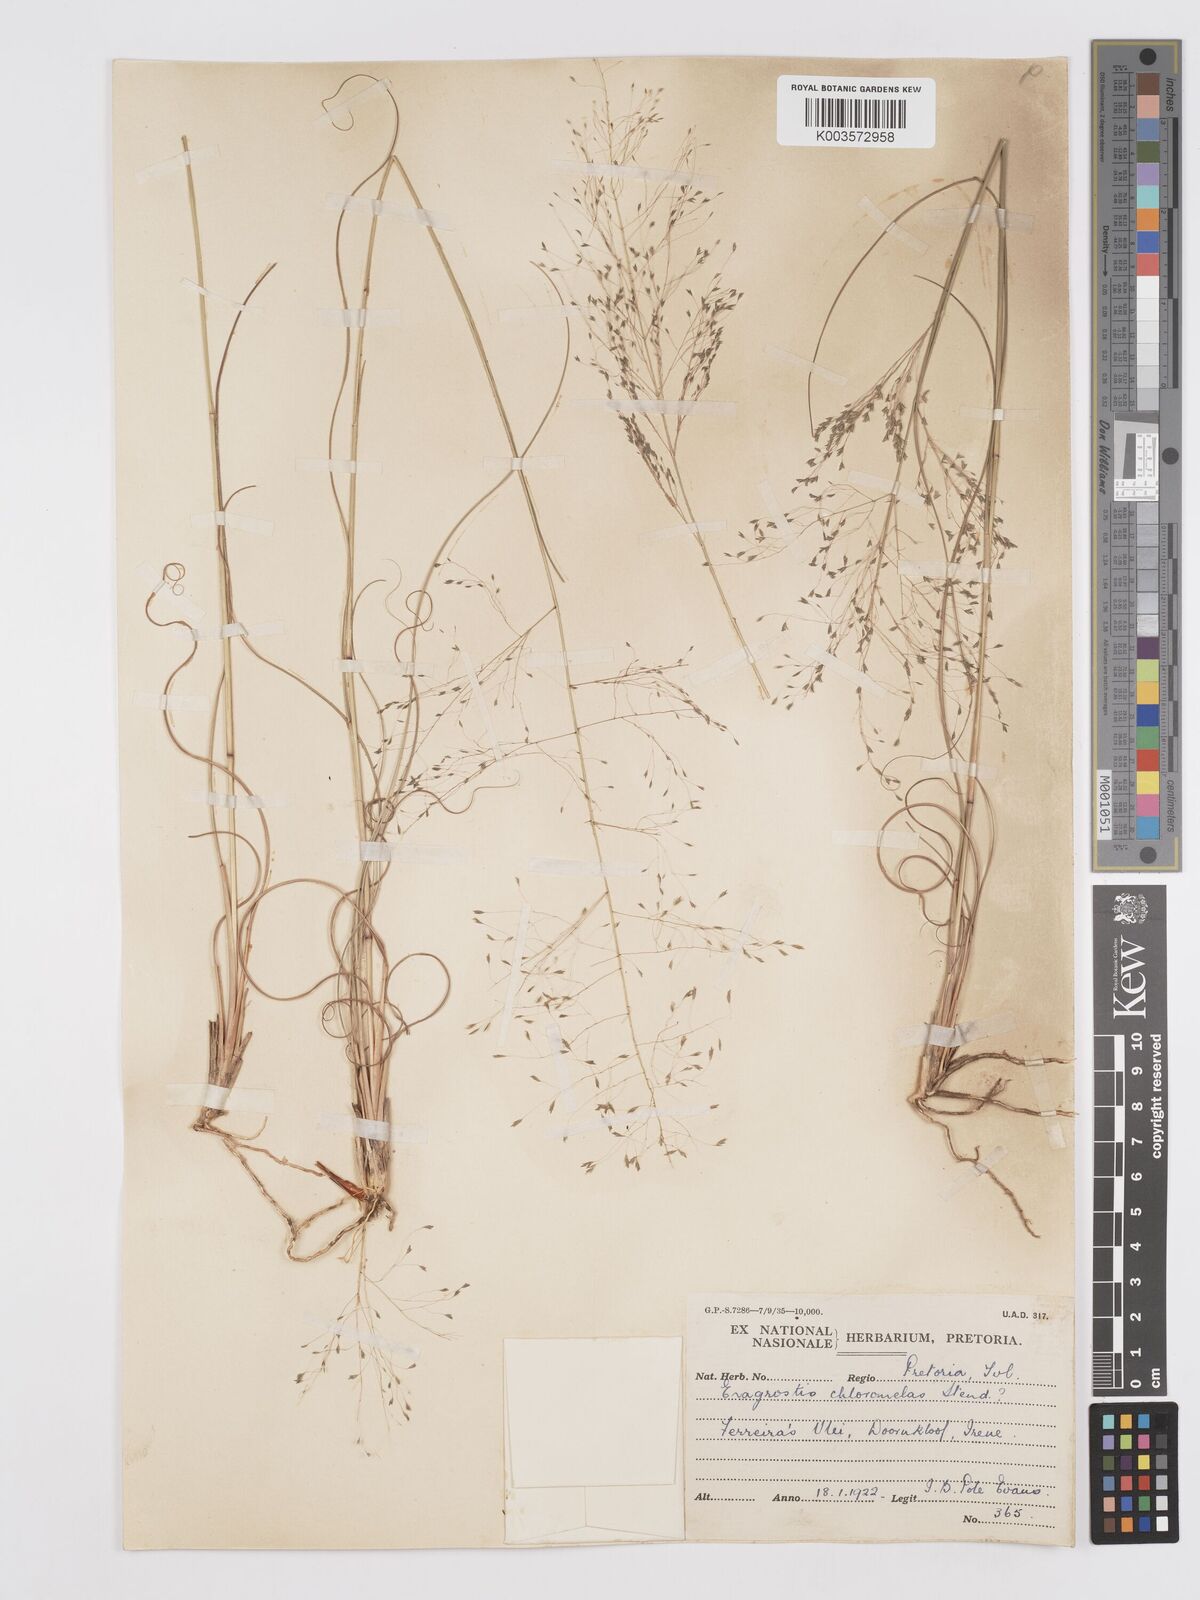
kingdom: Plantae
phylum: Tracheophyta
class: Liliopsida
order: Poales
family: Poaceae
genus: Eragrostis
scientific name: Eragrostis curvula
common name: African love-grass
